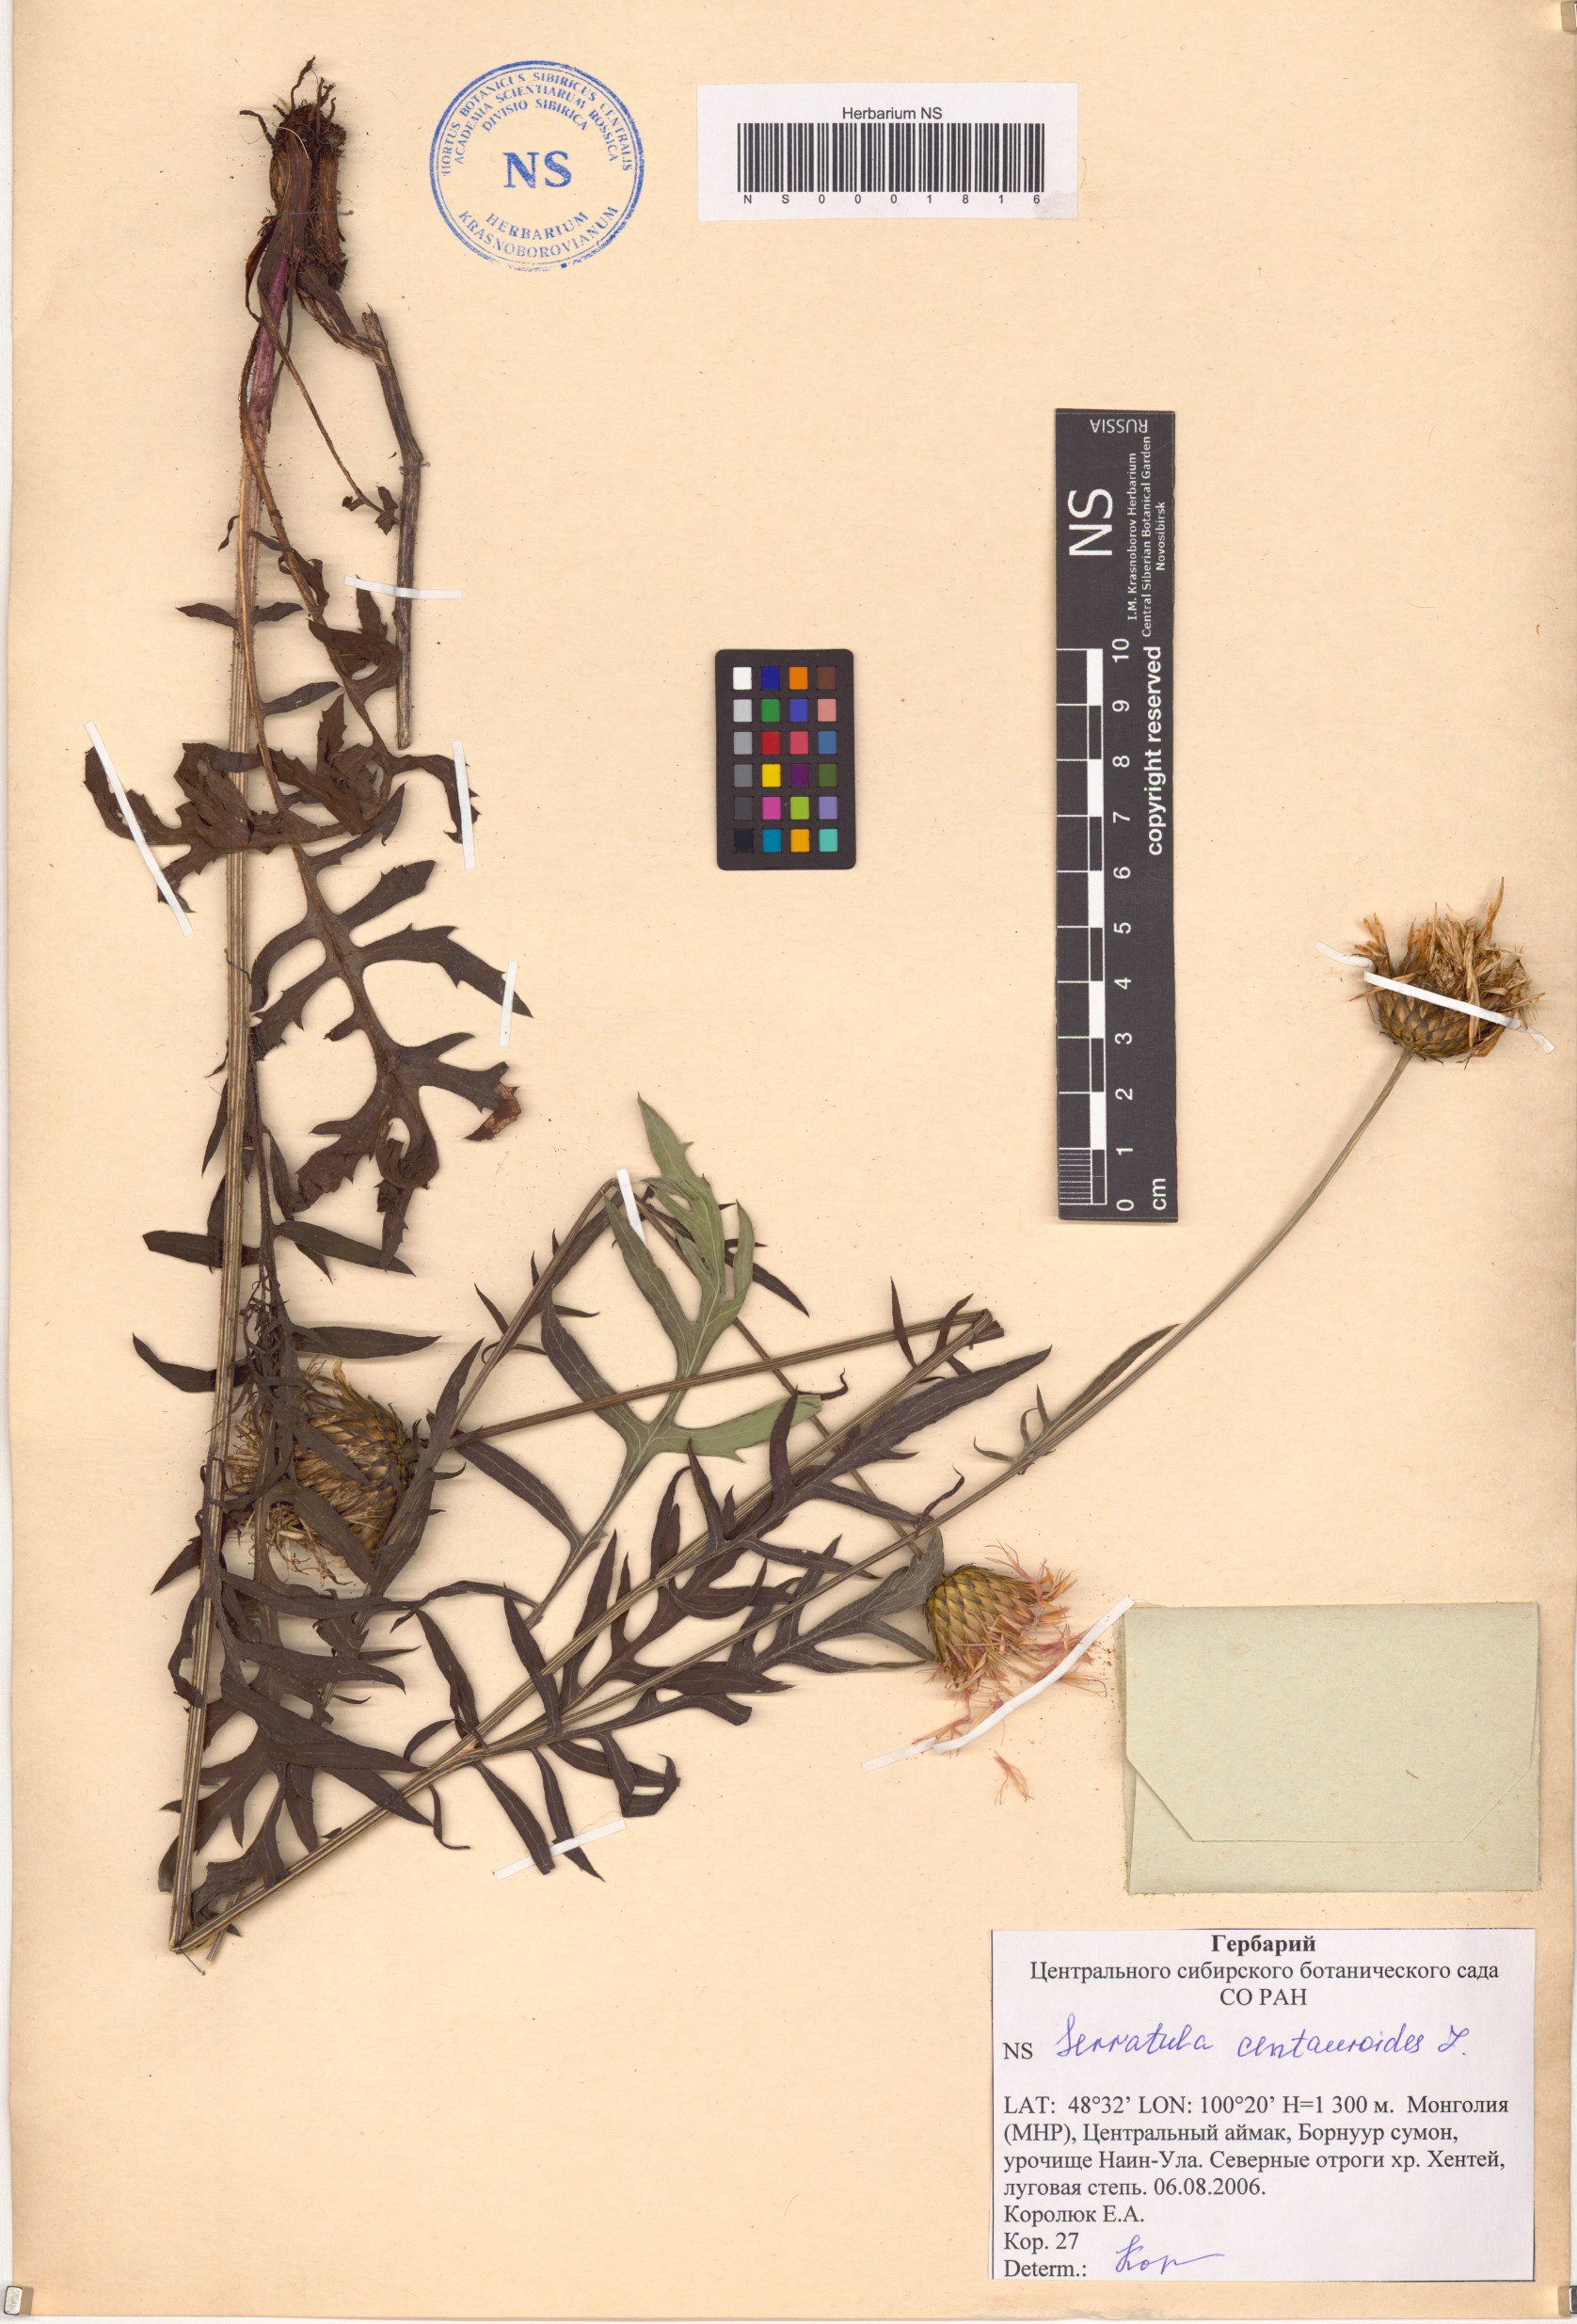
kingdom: Plantae
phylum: Tracheophyta
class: Magnoliopsida
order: Asterales
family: Asteraceae
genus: Klasea
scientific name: Klasea centauroides
